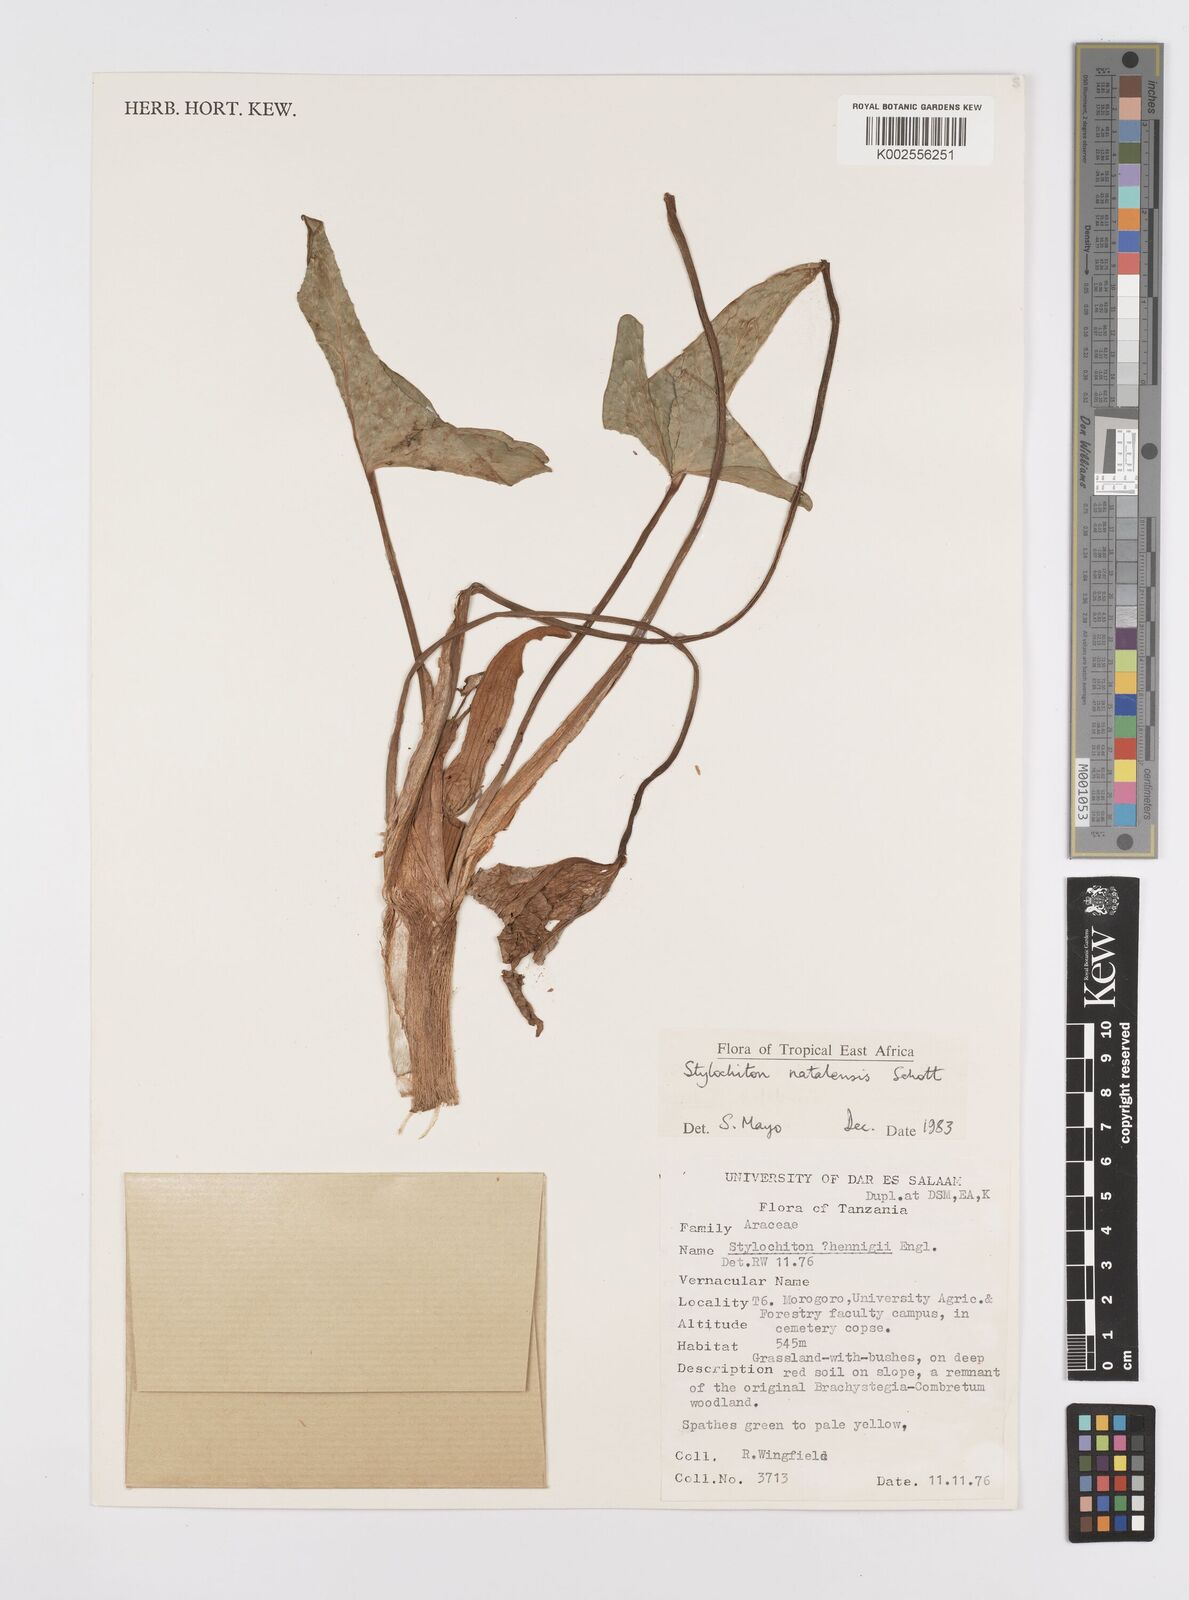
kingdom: Plantae
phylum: Tracheophyta
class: Liliopsida
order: Alismatales
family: Araceae
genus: Stylochaeton
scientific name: Stylochaeton natalense
